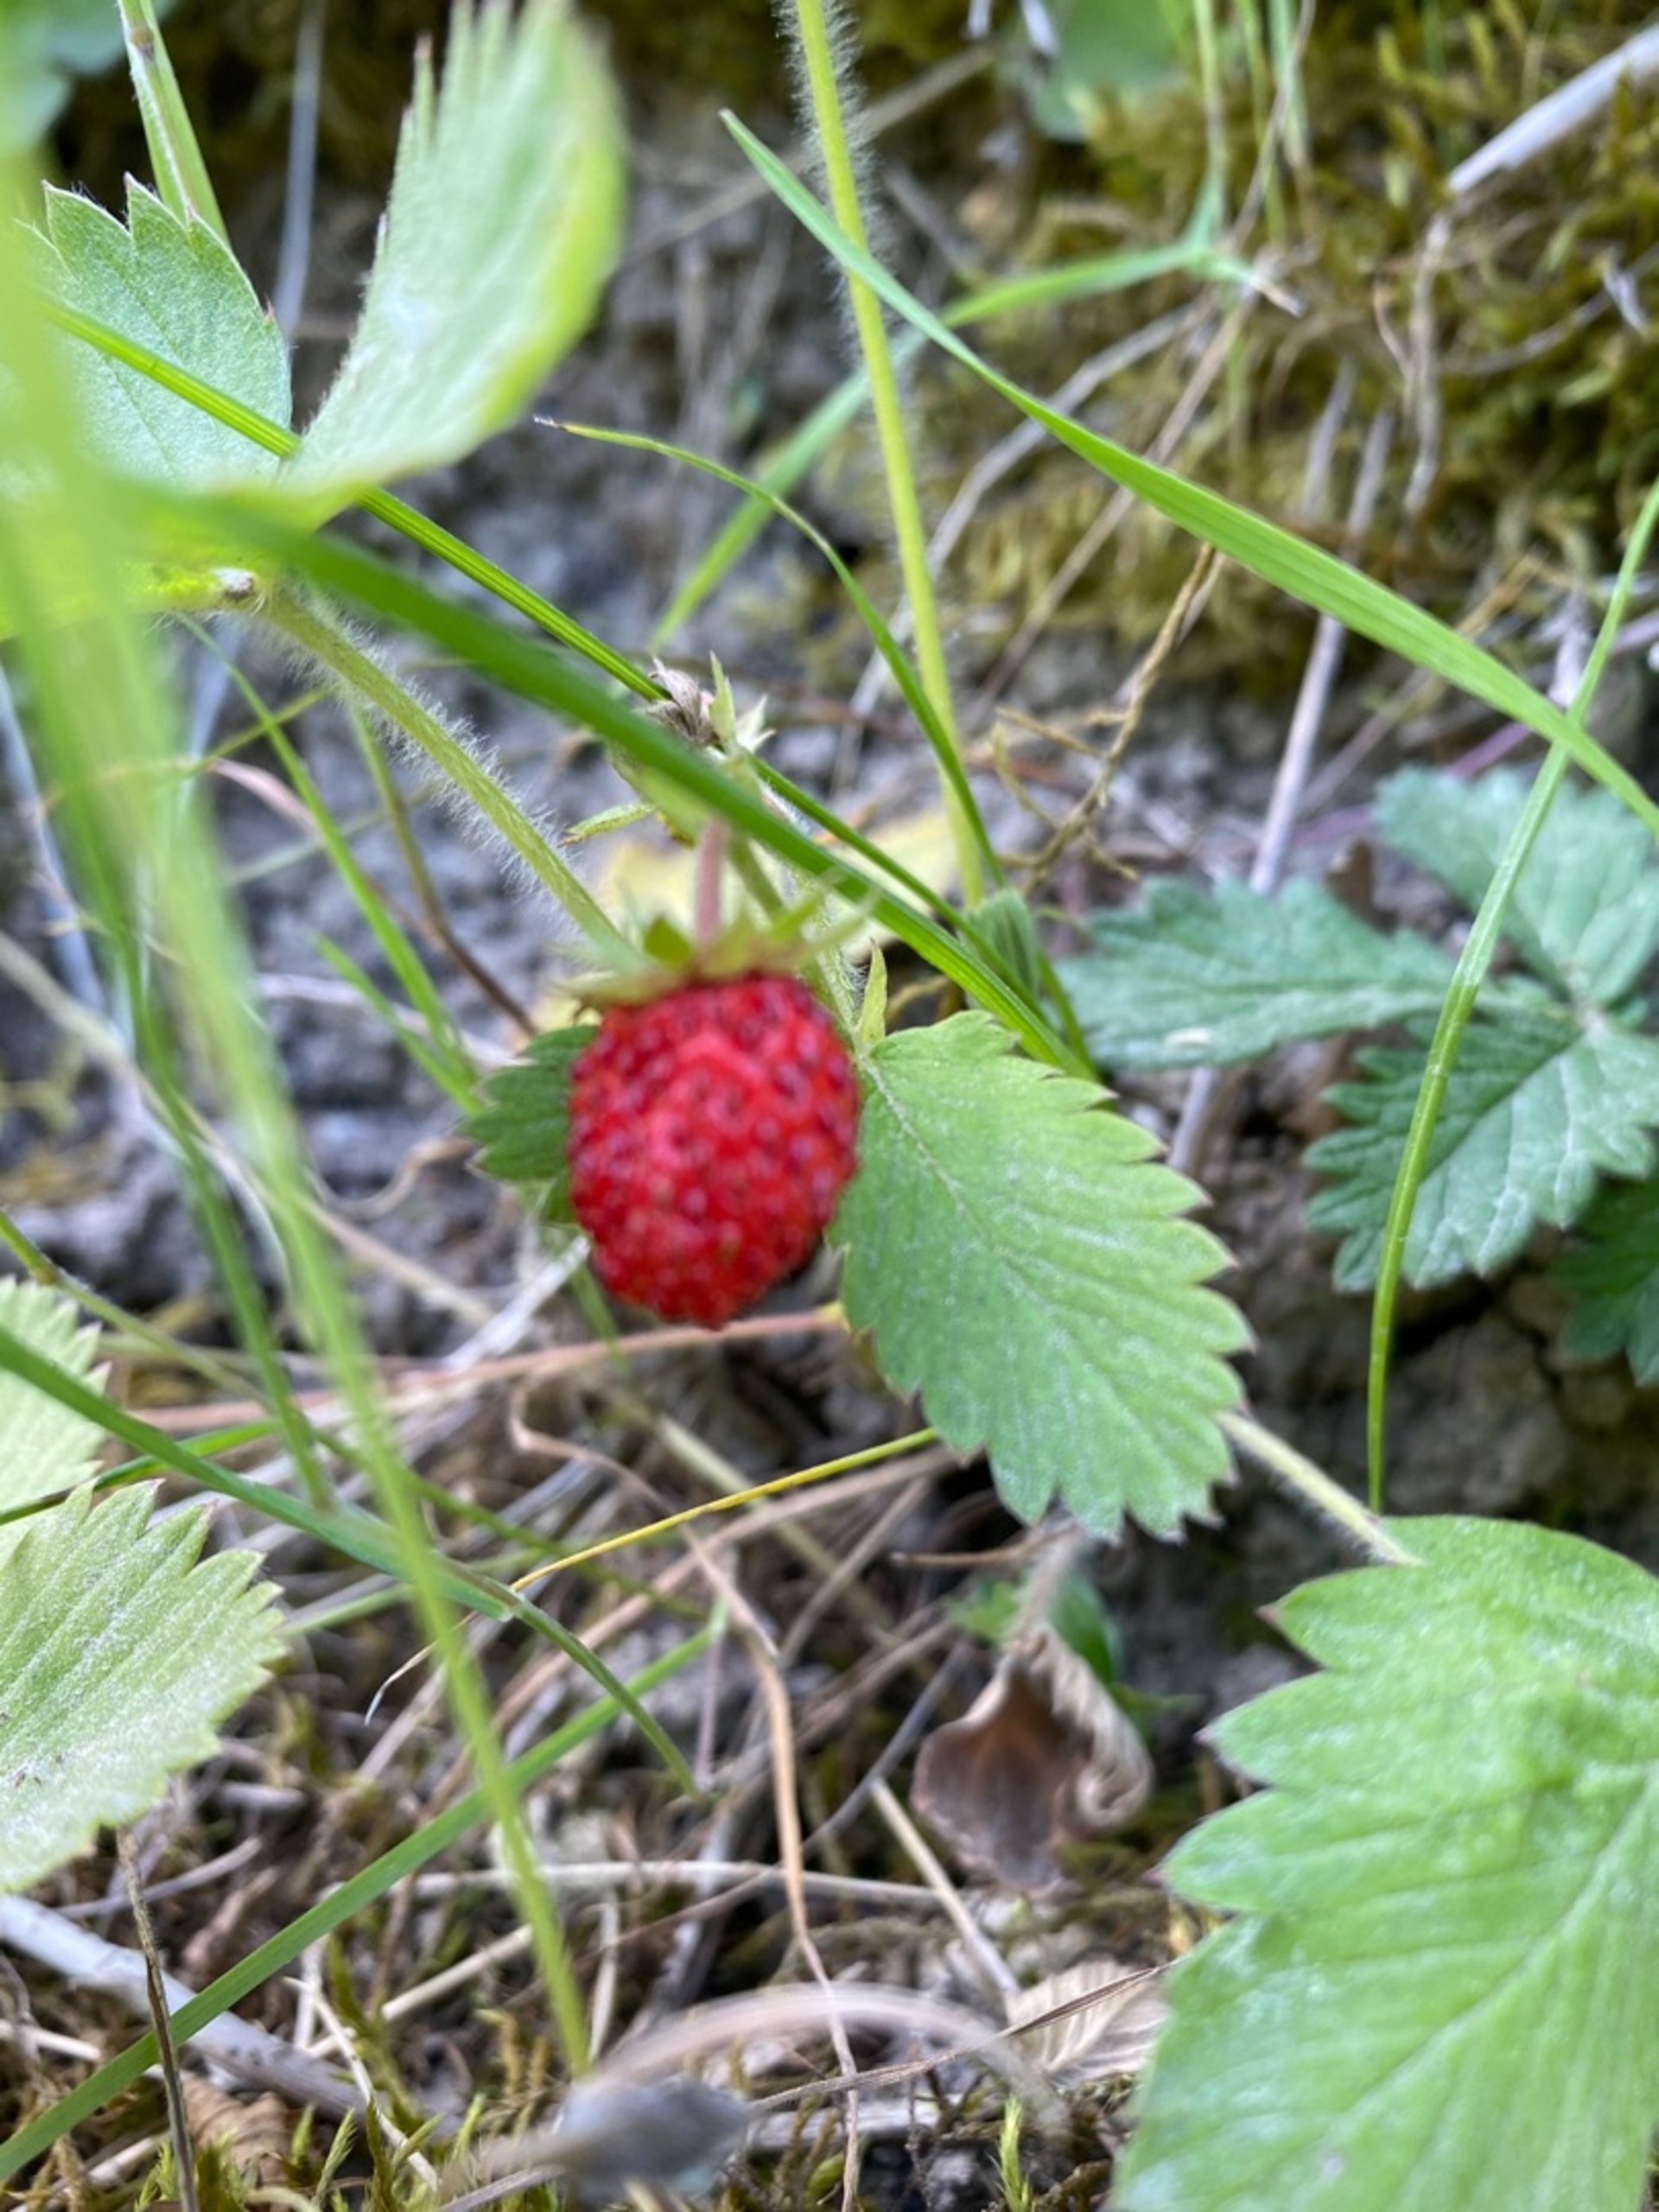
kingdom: Plantae
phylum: Tracheophyta
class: Magnoliopsida
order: Rosales
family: Rosaceae
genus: Fragaria
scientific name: Fragaria vesca
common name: Skov-jordbær
